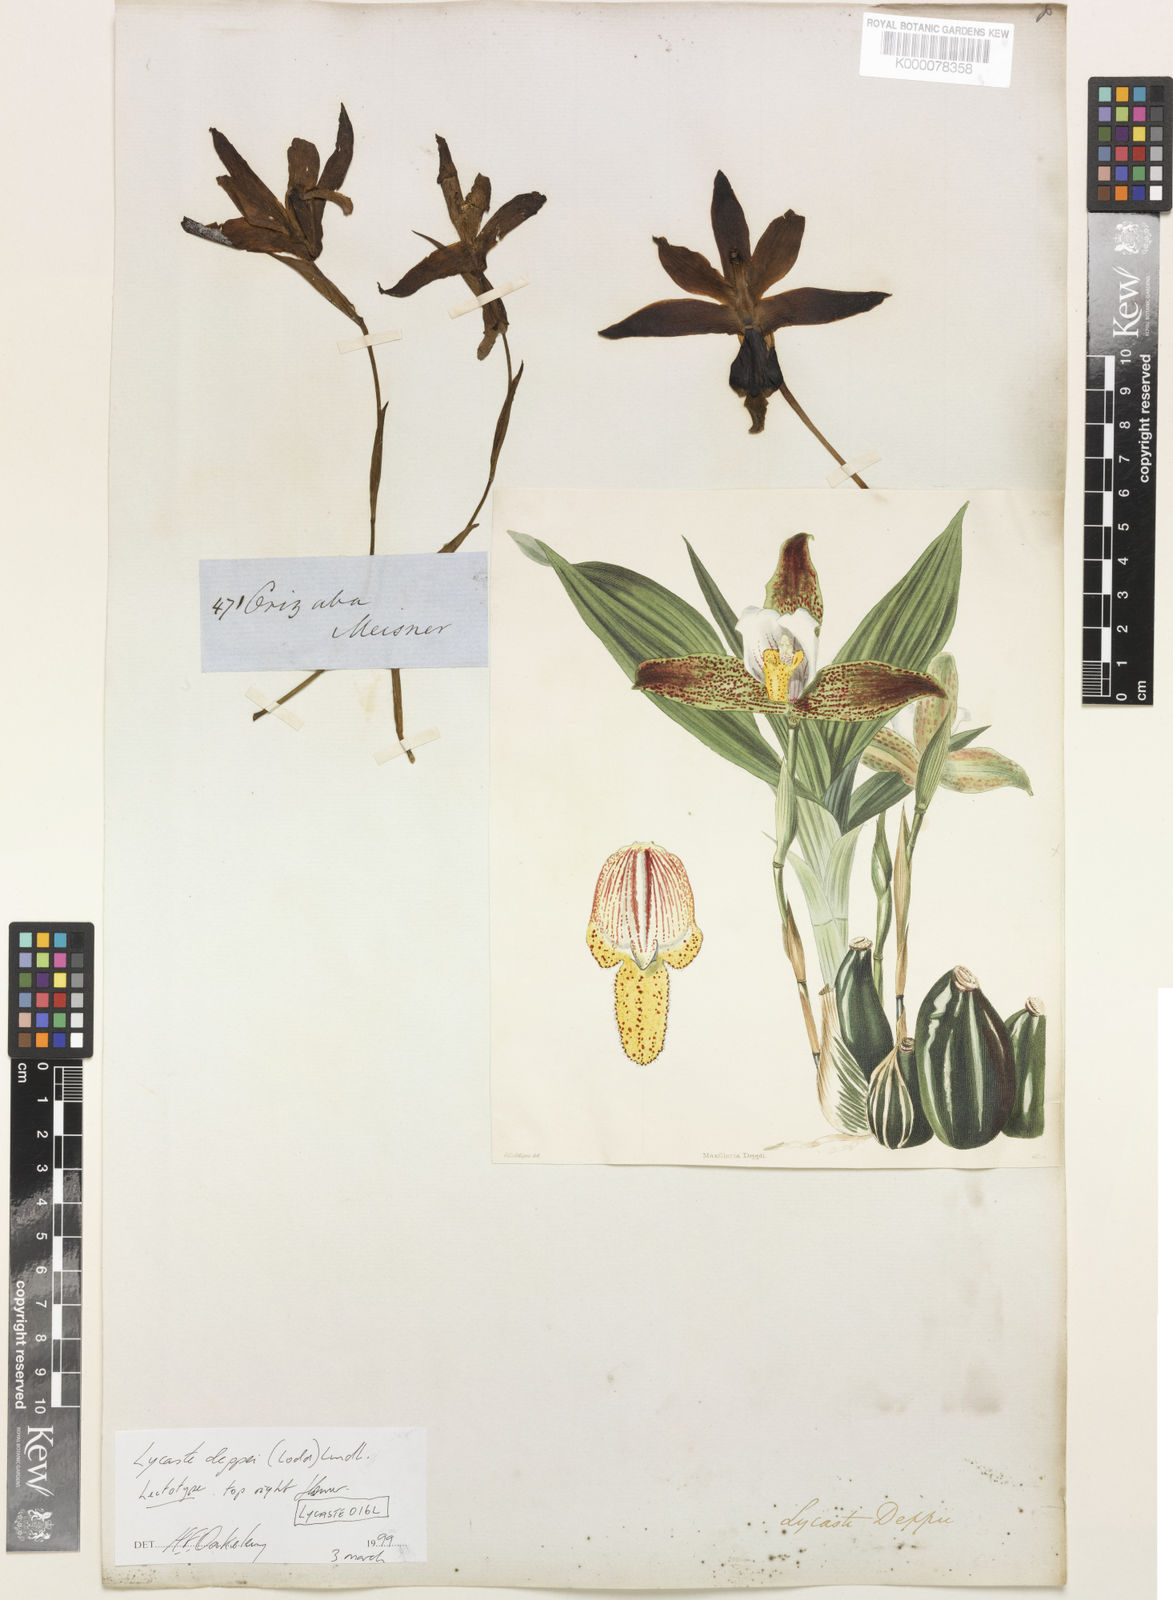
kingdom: Plantae
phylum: Tracheophyta
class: Liliopsida
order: Asparagales
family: Orchidaceae
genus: Lycaste
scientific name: Lycaste deppei
